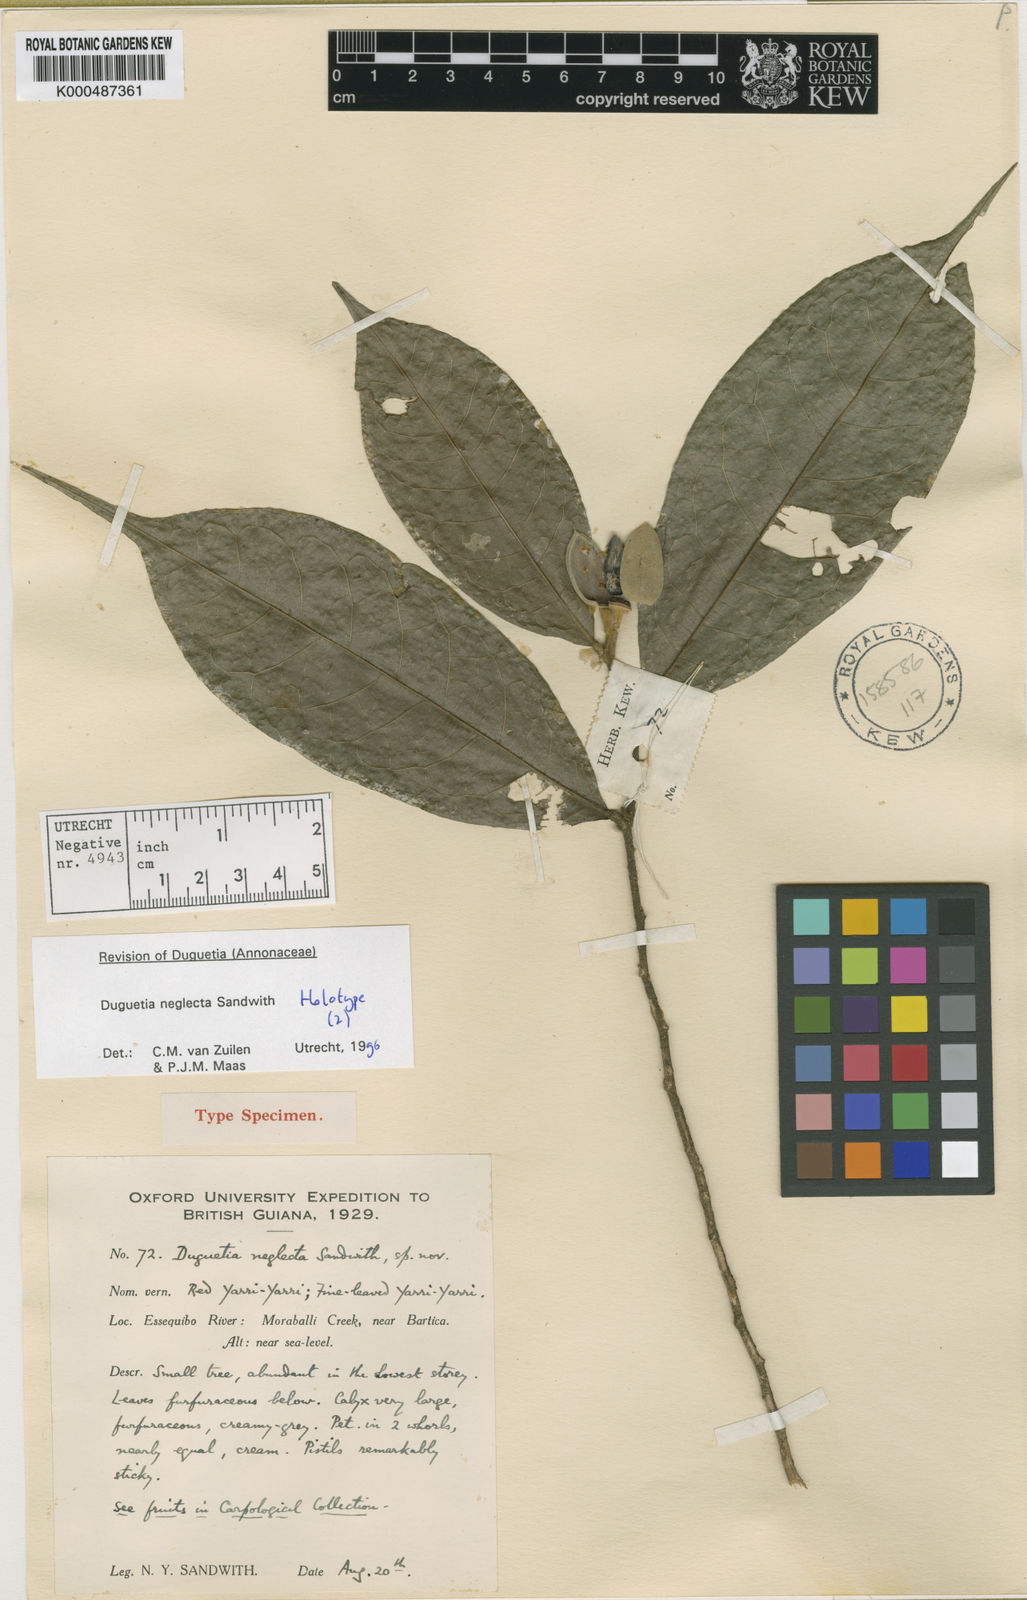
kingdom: Plantae
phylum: Tracheophyta
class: Magnoliopsida
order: Magnoliales
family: Annonaceae
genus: Duguetia
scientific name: Duguetia neglecta
